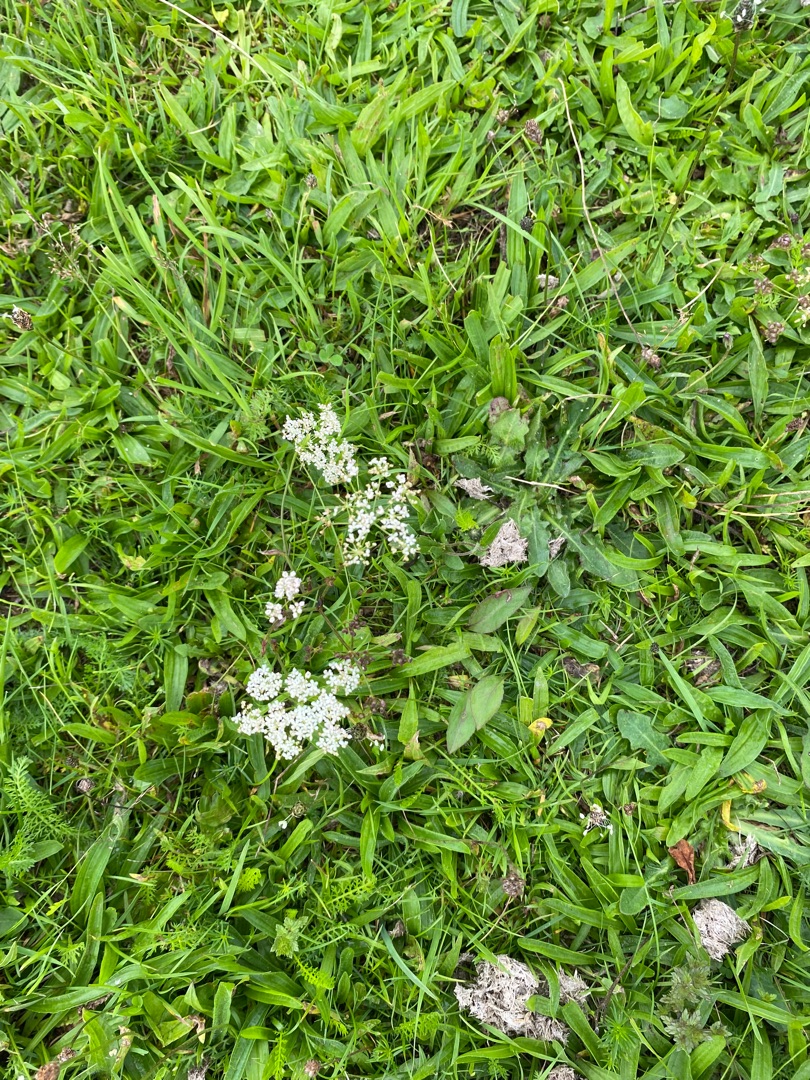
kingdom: Plantae
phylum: Tracheophyta
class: Magnoliopsida
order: Apiales
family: Apiaceae
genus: Pimpinella
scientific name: Pimpinella saxifraga
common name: Almindelig pimpinelle
